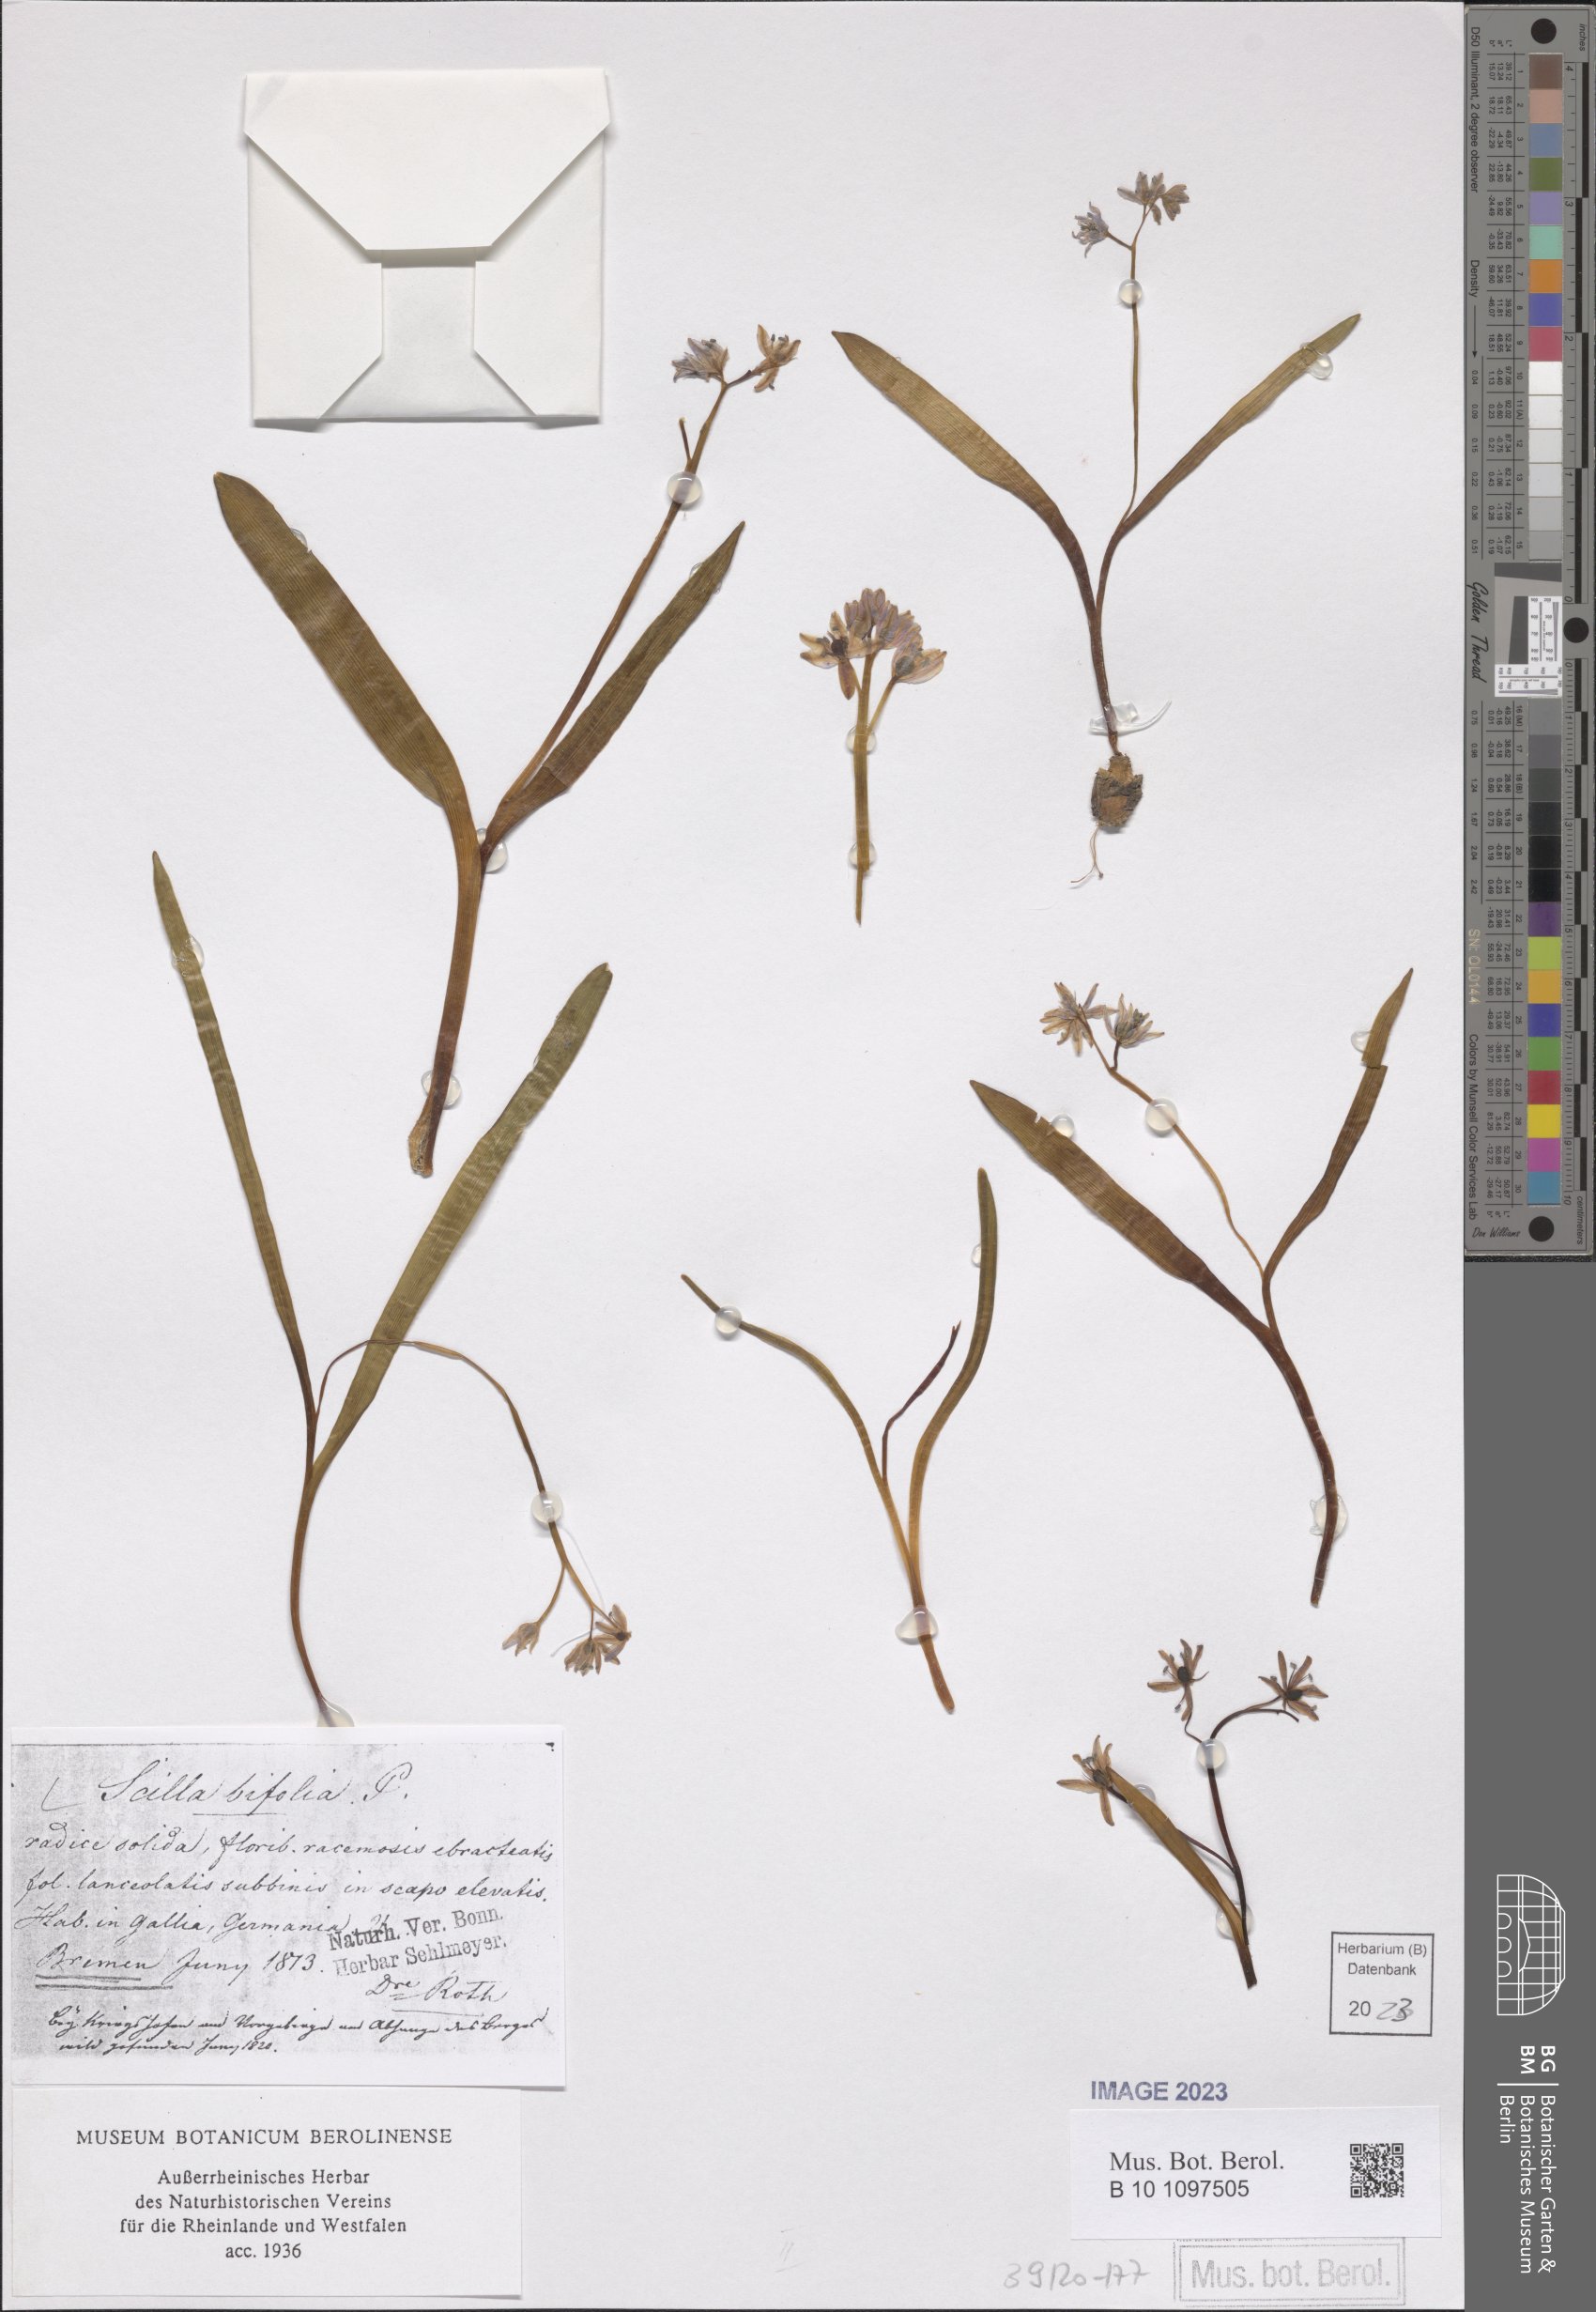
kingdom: Plantae
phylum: Tracheophyta
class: Liliopsida
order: Asparagales
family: Asparagaceae
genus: Scilla
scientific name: Scilla bifolia
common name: Alpine squill
